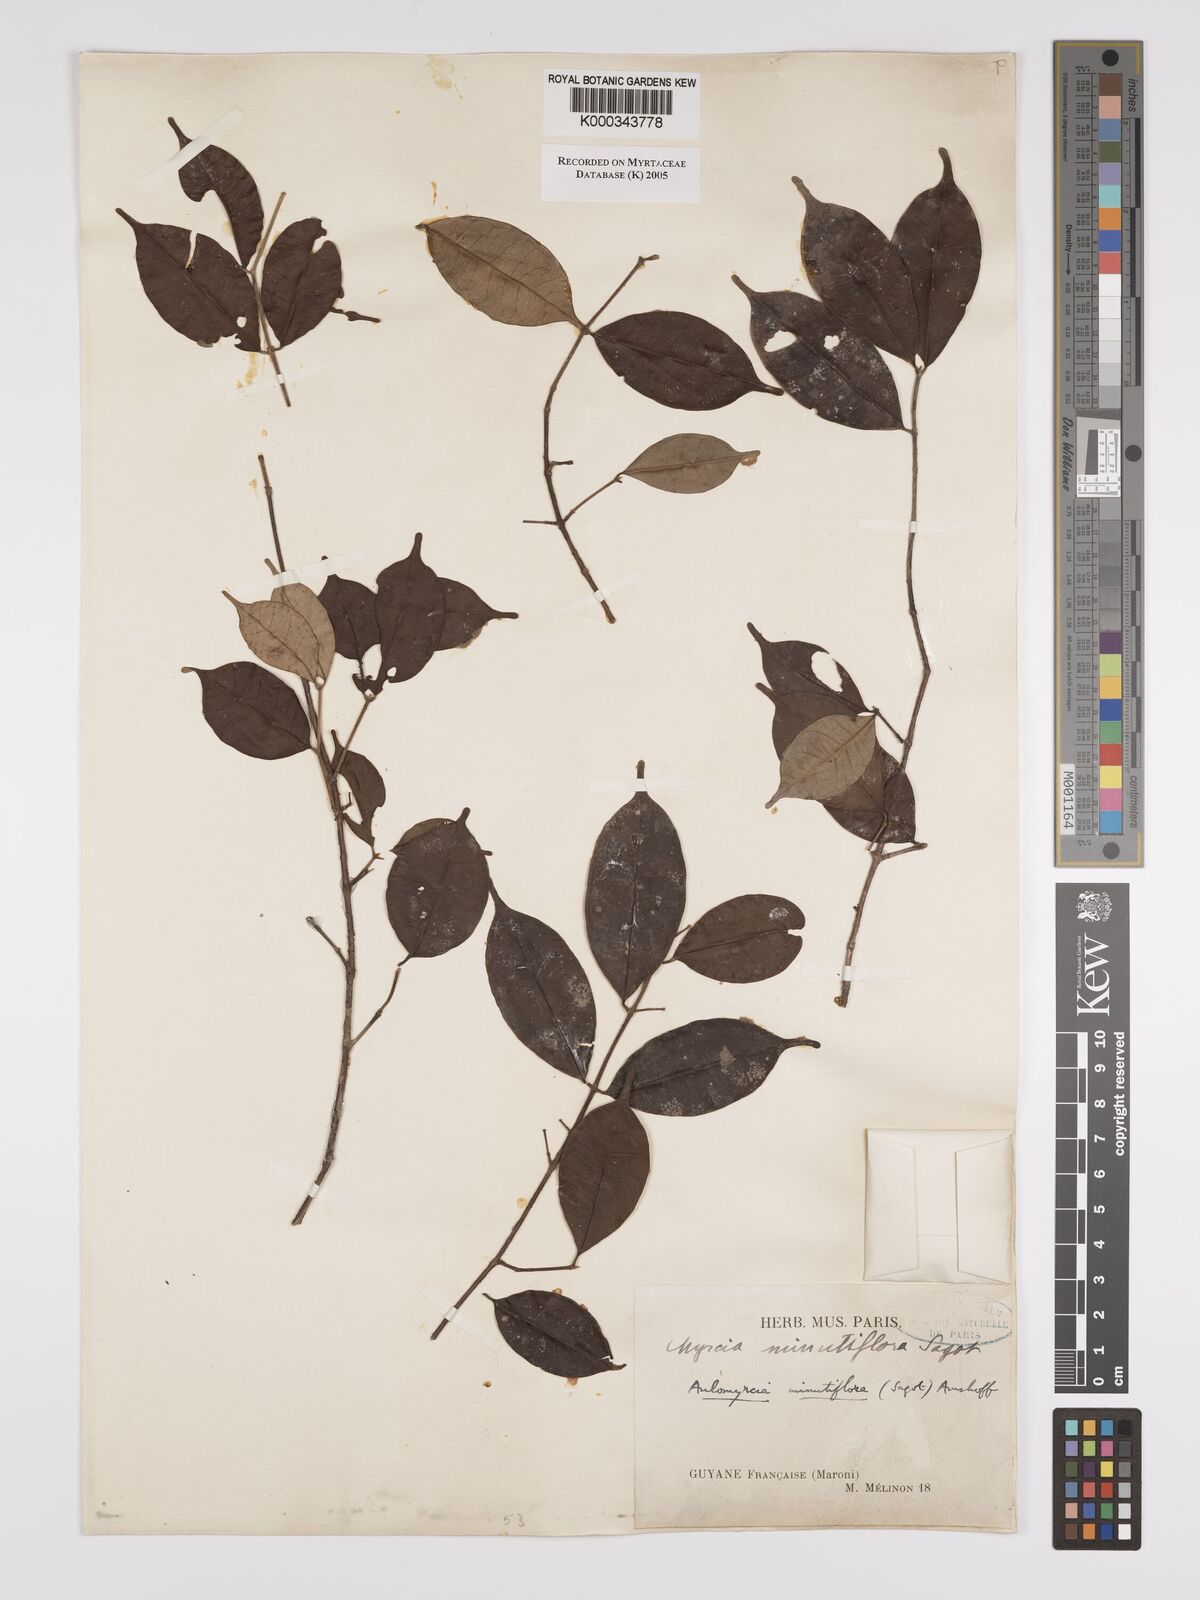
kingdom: Plantae
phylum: Tracheophyta
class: Magnoliopsida
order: Myrtales
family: Myrtaceae
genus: Myrcia
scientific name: Myrcia minutiflora
